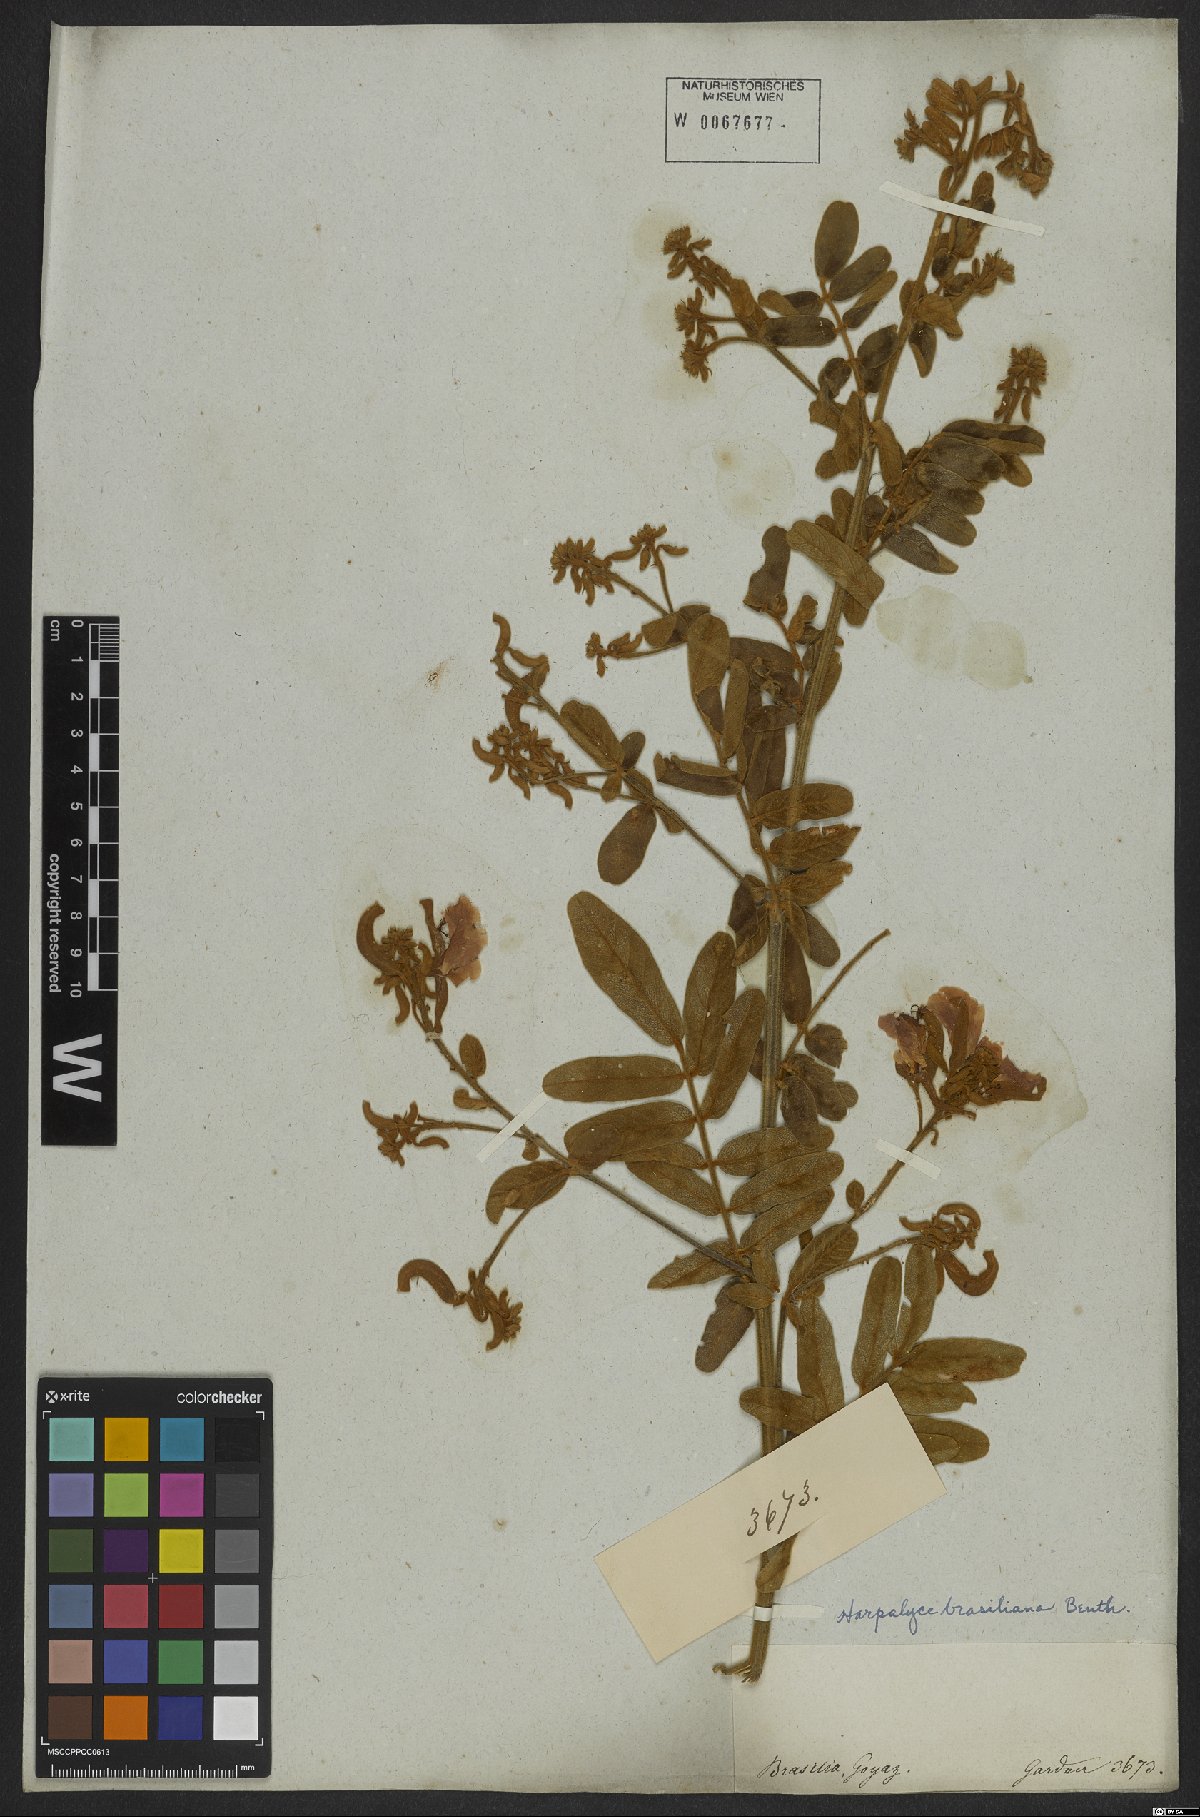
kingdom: Plantae
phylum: Tracheophyta
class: Magnoliopsida
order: Fabales
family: Fabaceae
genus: Harpalyce
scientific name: Harpalyce brasiliana
